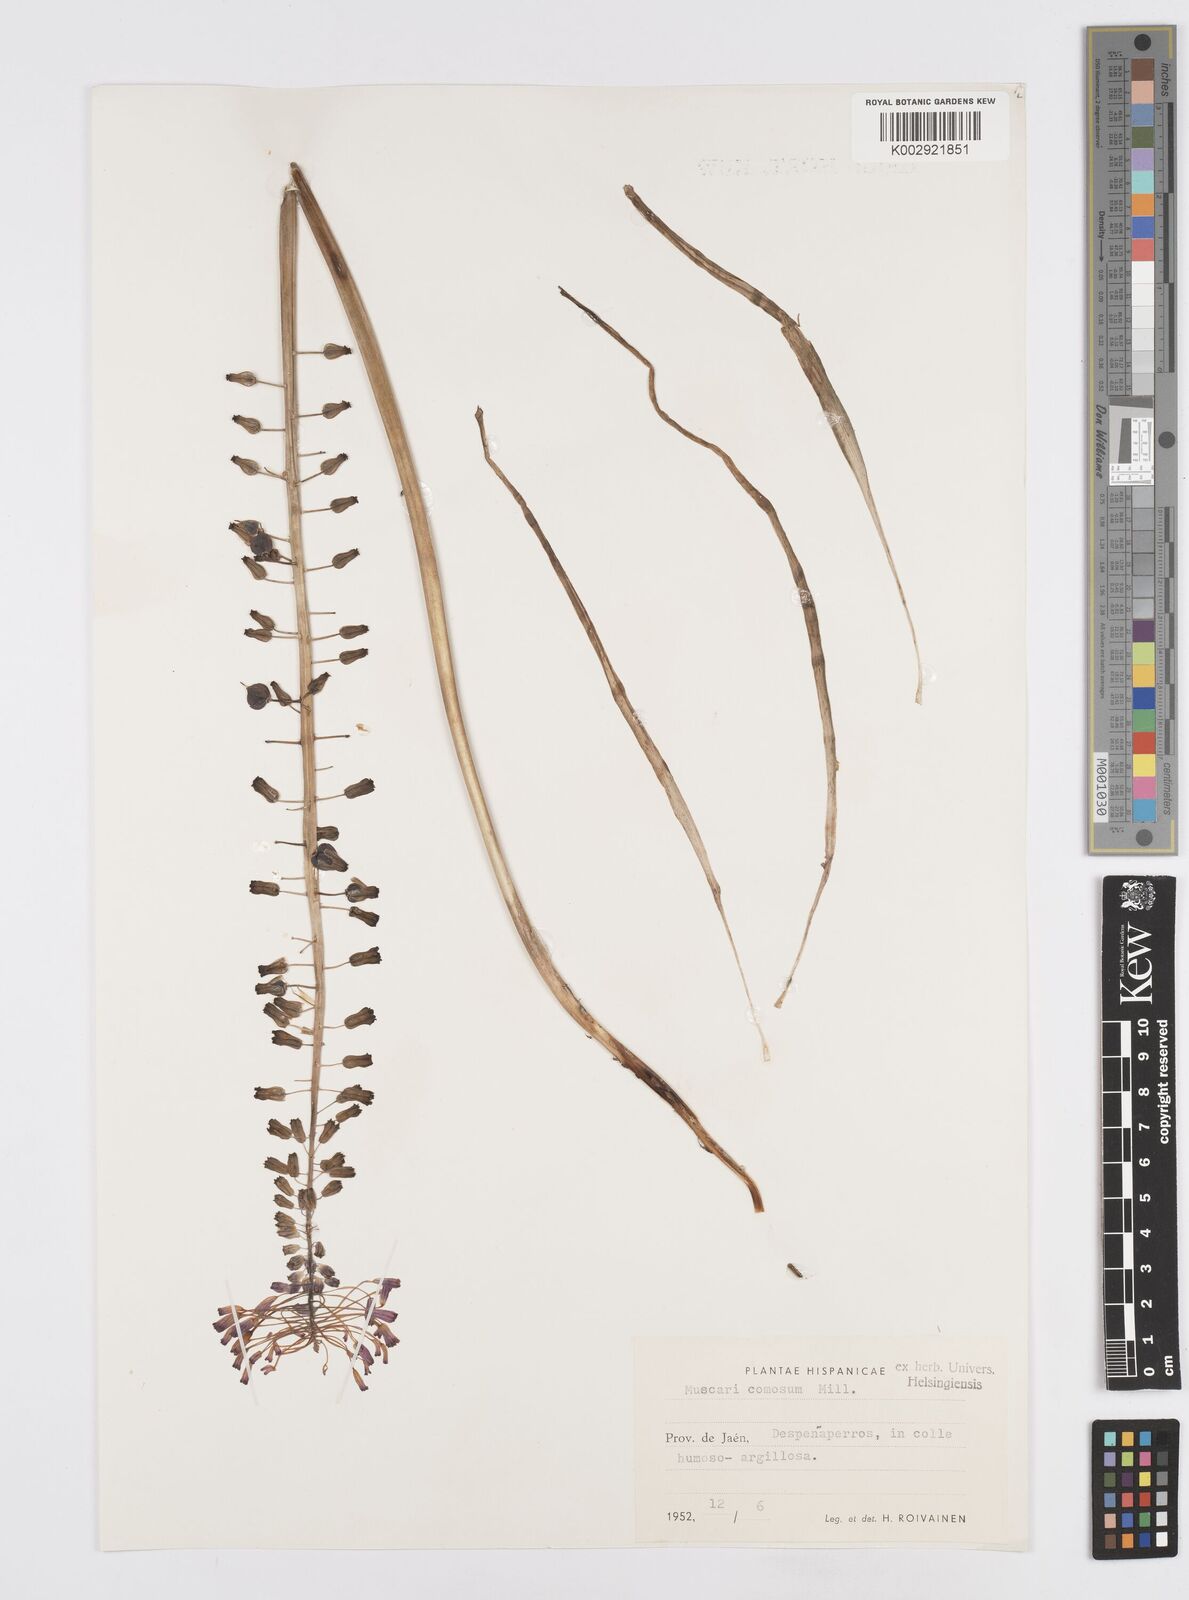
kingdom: Plantae
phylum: Tracheophyta
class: Liliopsida
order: Asparagales
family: Asparagaceae
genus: Muscari
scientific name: Muscari comosum
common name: Tassel hyacinth
